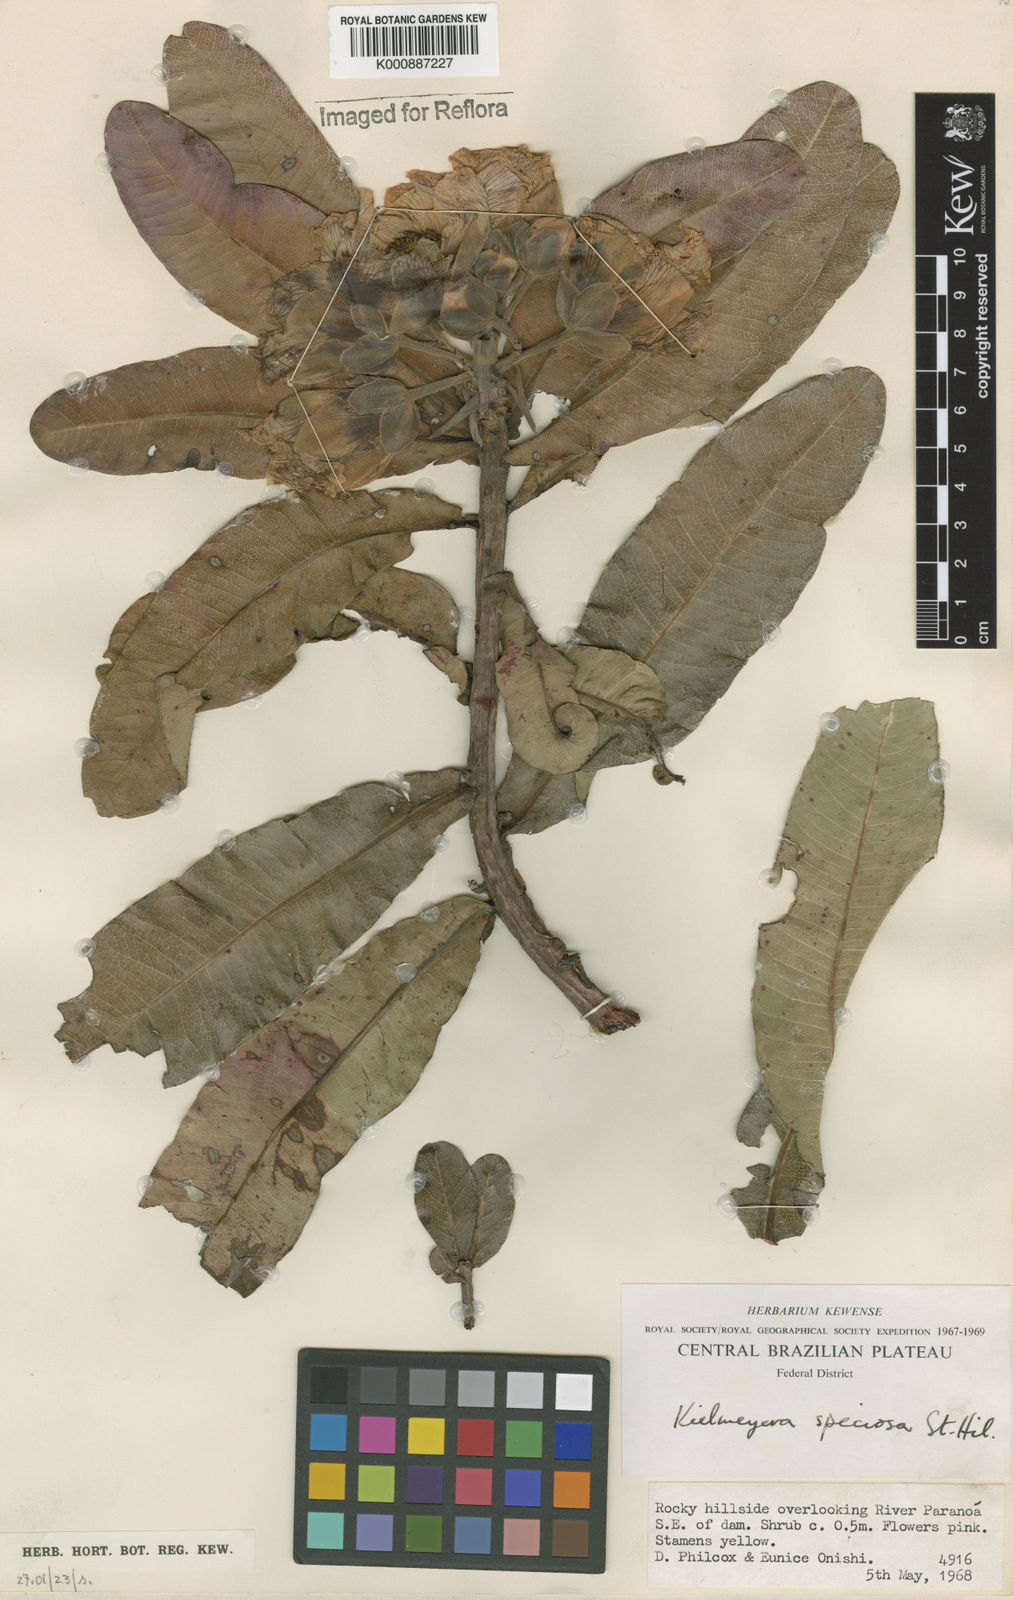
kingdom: Plantae
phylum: Tracheophyta
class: Magnoliopsida
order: Malpighiales
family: Calophyllaceae
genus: Kielmeyera
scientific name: Kielmeyera speciosa
